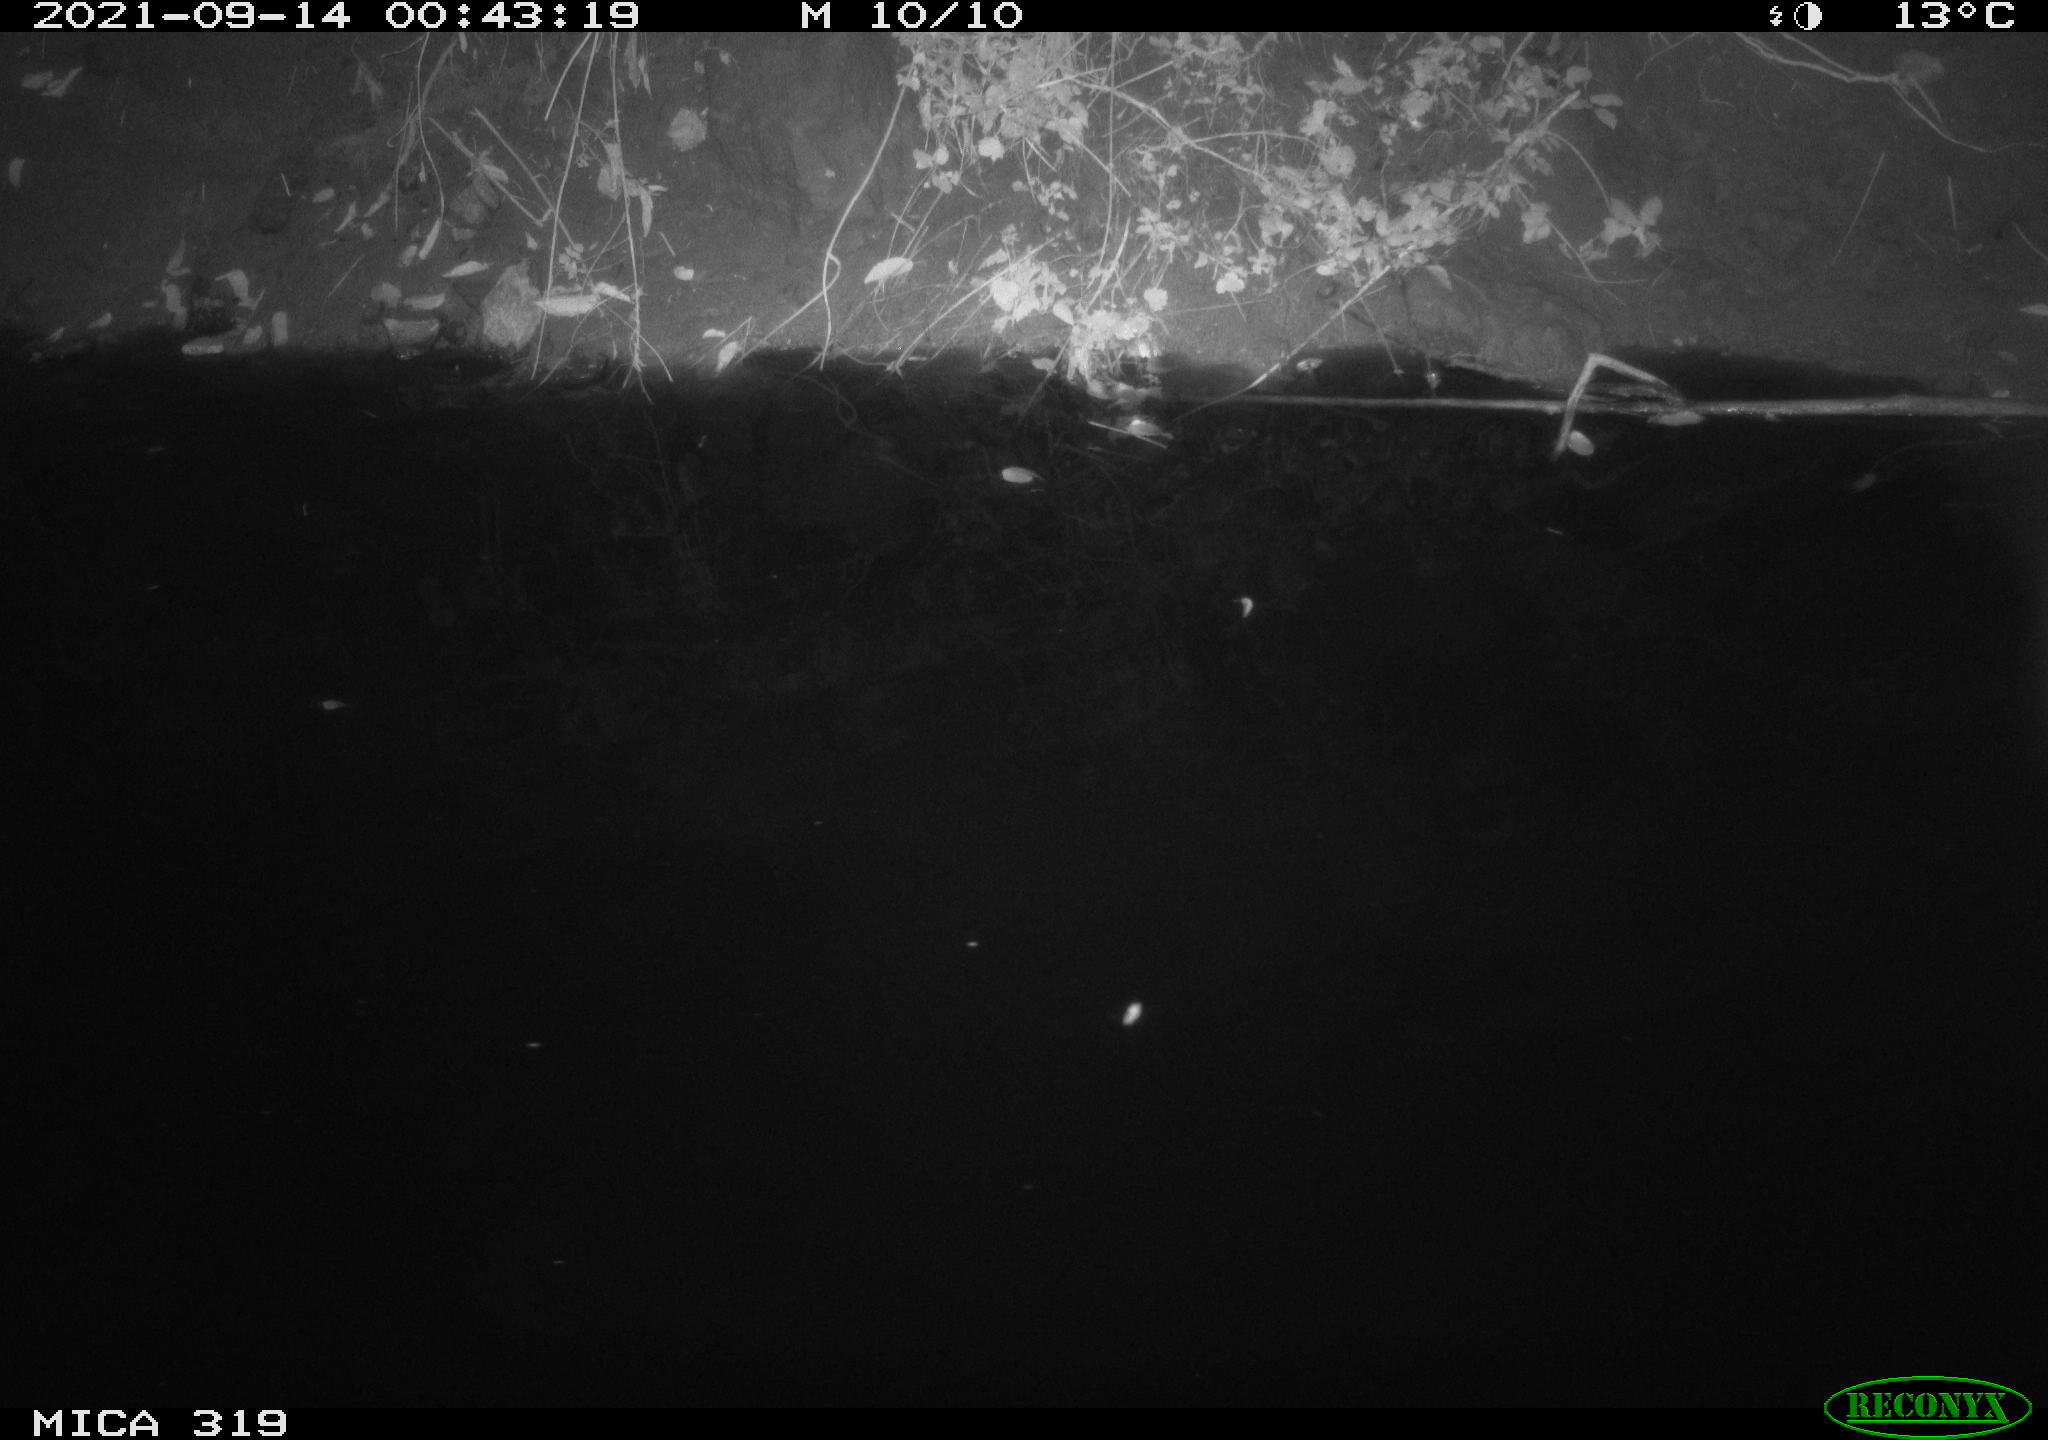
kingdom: Animalia
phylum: Chordata
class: Aves
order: Anseriformes
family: Anatidae
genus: Anas
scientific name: Anas platyrhynchos
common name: Mallard
